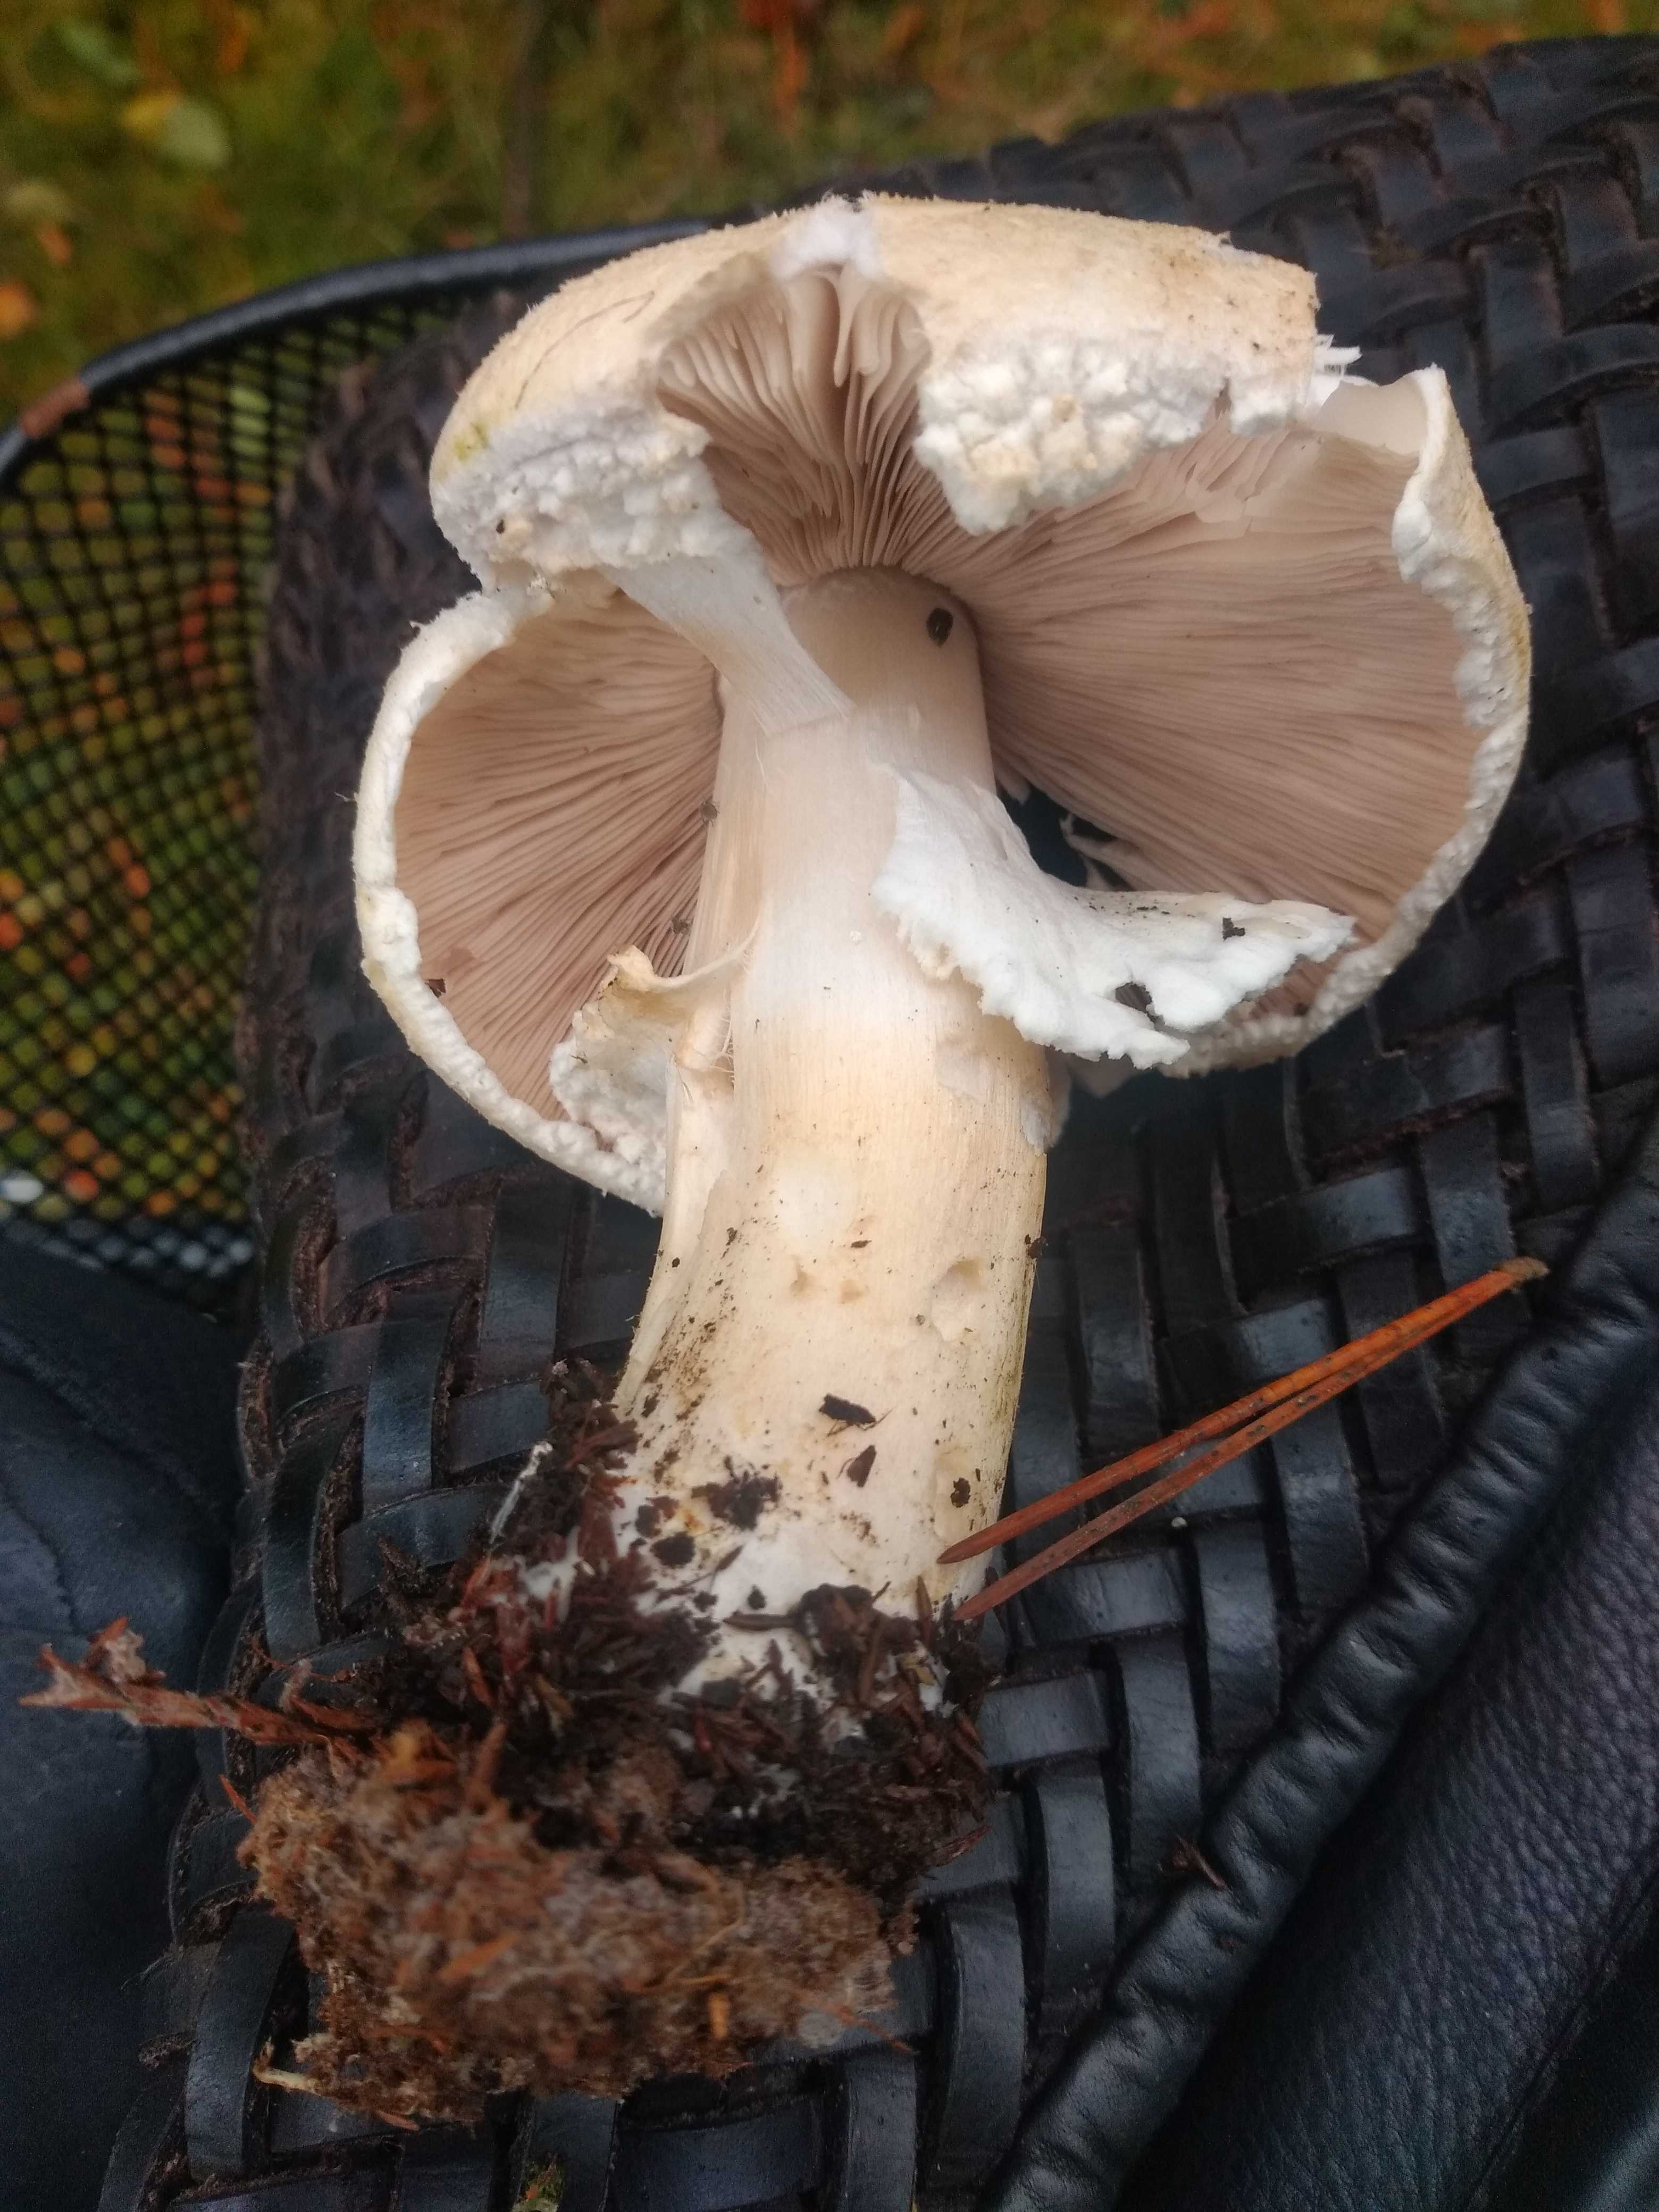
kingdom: Fungi
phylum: Basidiomycota
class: Agaricomycetes
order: Agaricales
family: Agaricaceae
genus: Agaricus
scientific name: Agaricus
